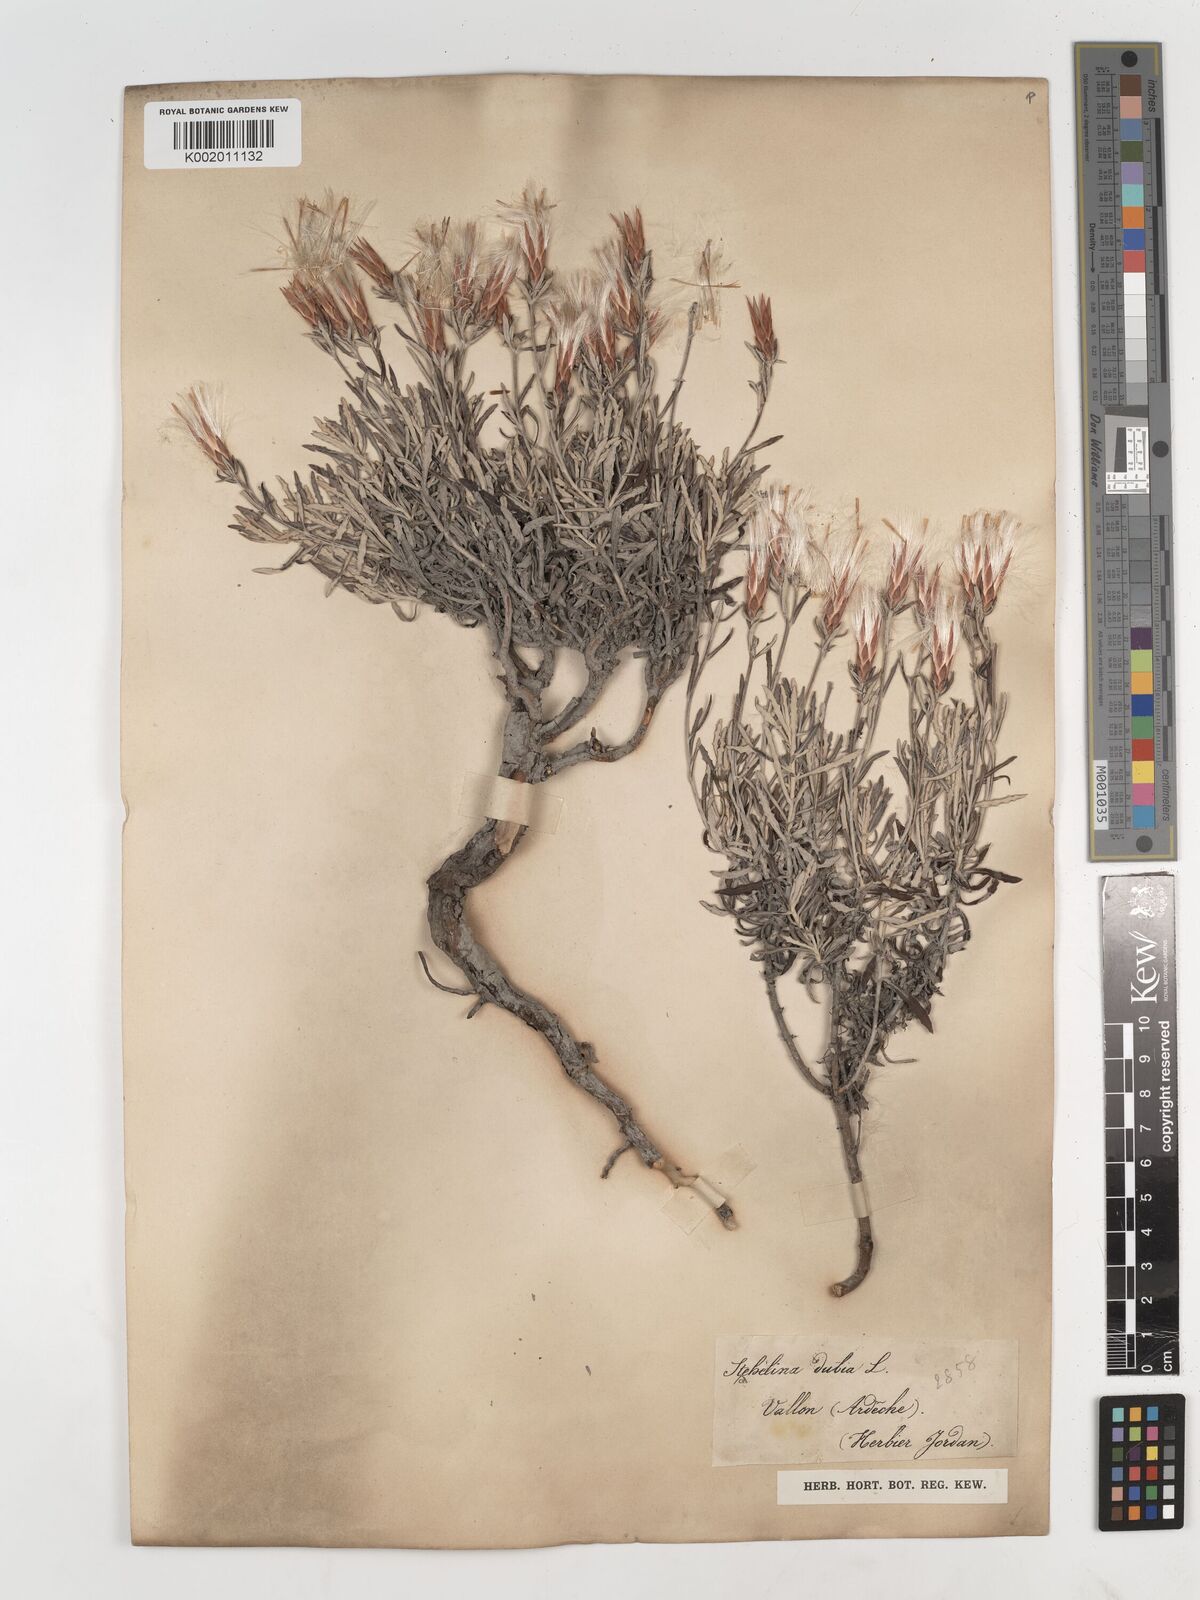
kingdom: Plantae
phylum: Tracheophyta
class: Magnoliopsida
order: Asterales
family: Asteraceae
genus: Staehelina
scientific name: Staehelina dubia
